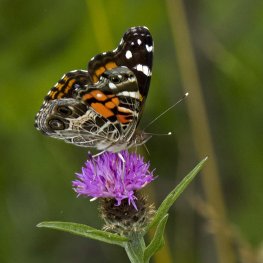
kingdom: Animalia
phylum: Arthropoda
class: Insecta
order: Lepidoptera
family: Nymphalidae
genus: Vanessa
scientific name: Vanessa virginiensis
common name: American Lady
